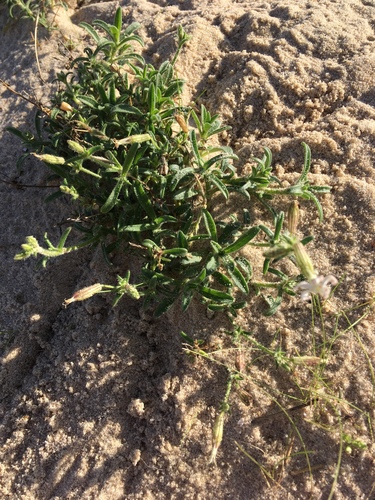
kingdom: Plantae
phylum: Tracheophyta
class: Magnoliopsida
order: Caryophyllales
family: Caryophyllaceae
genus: Silene
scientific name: Silene nicaeensis
